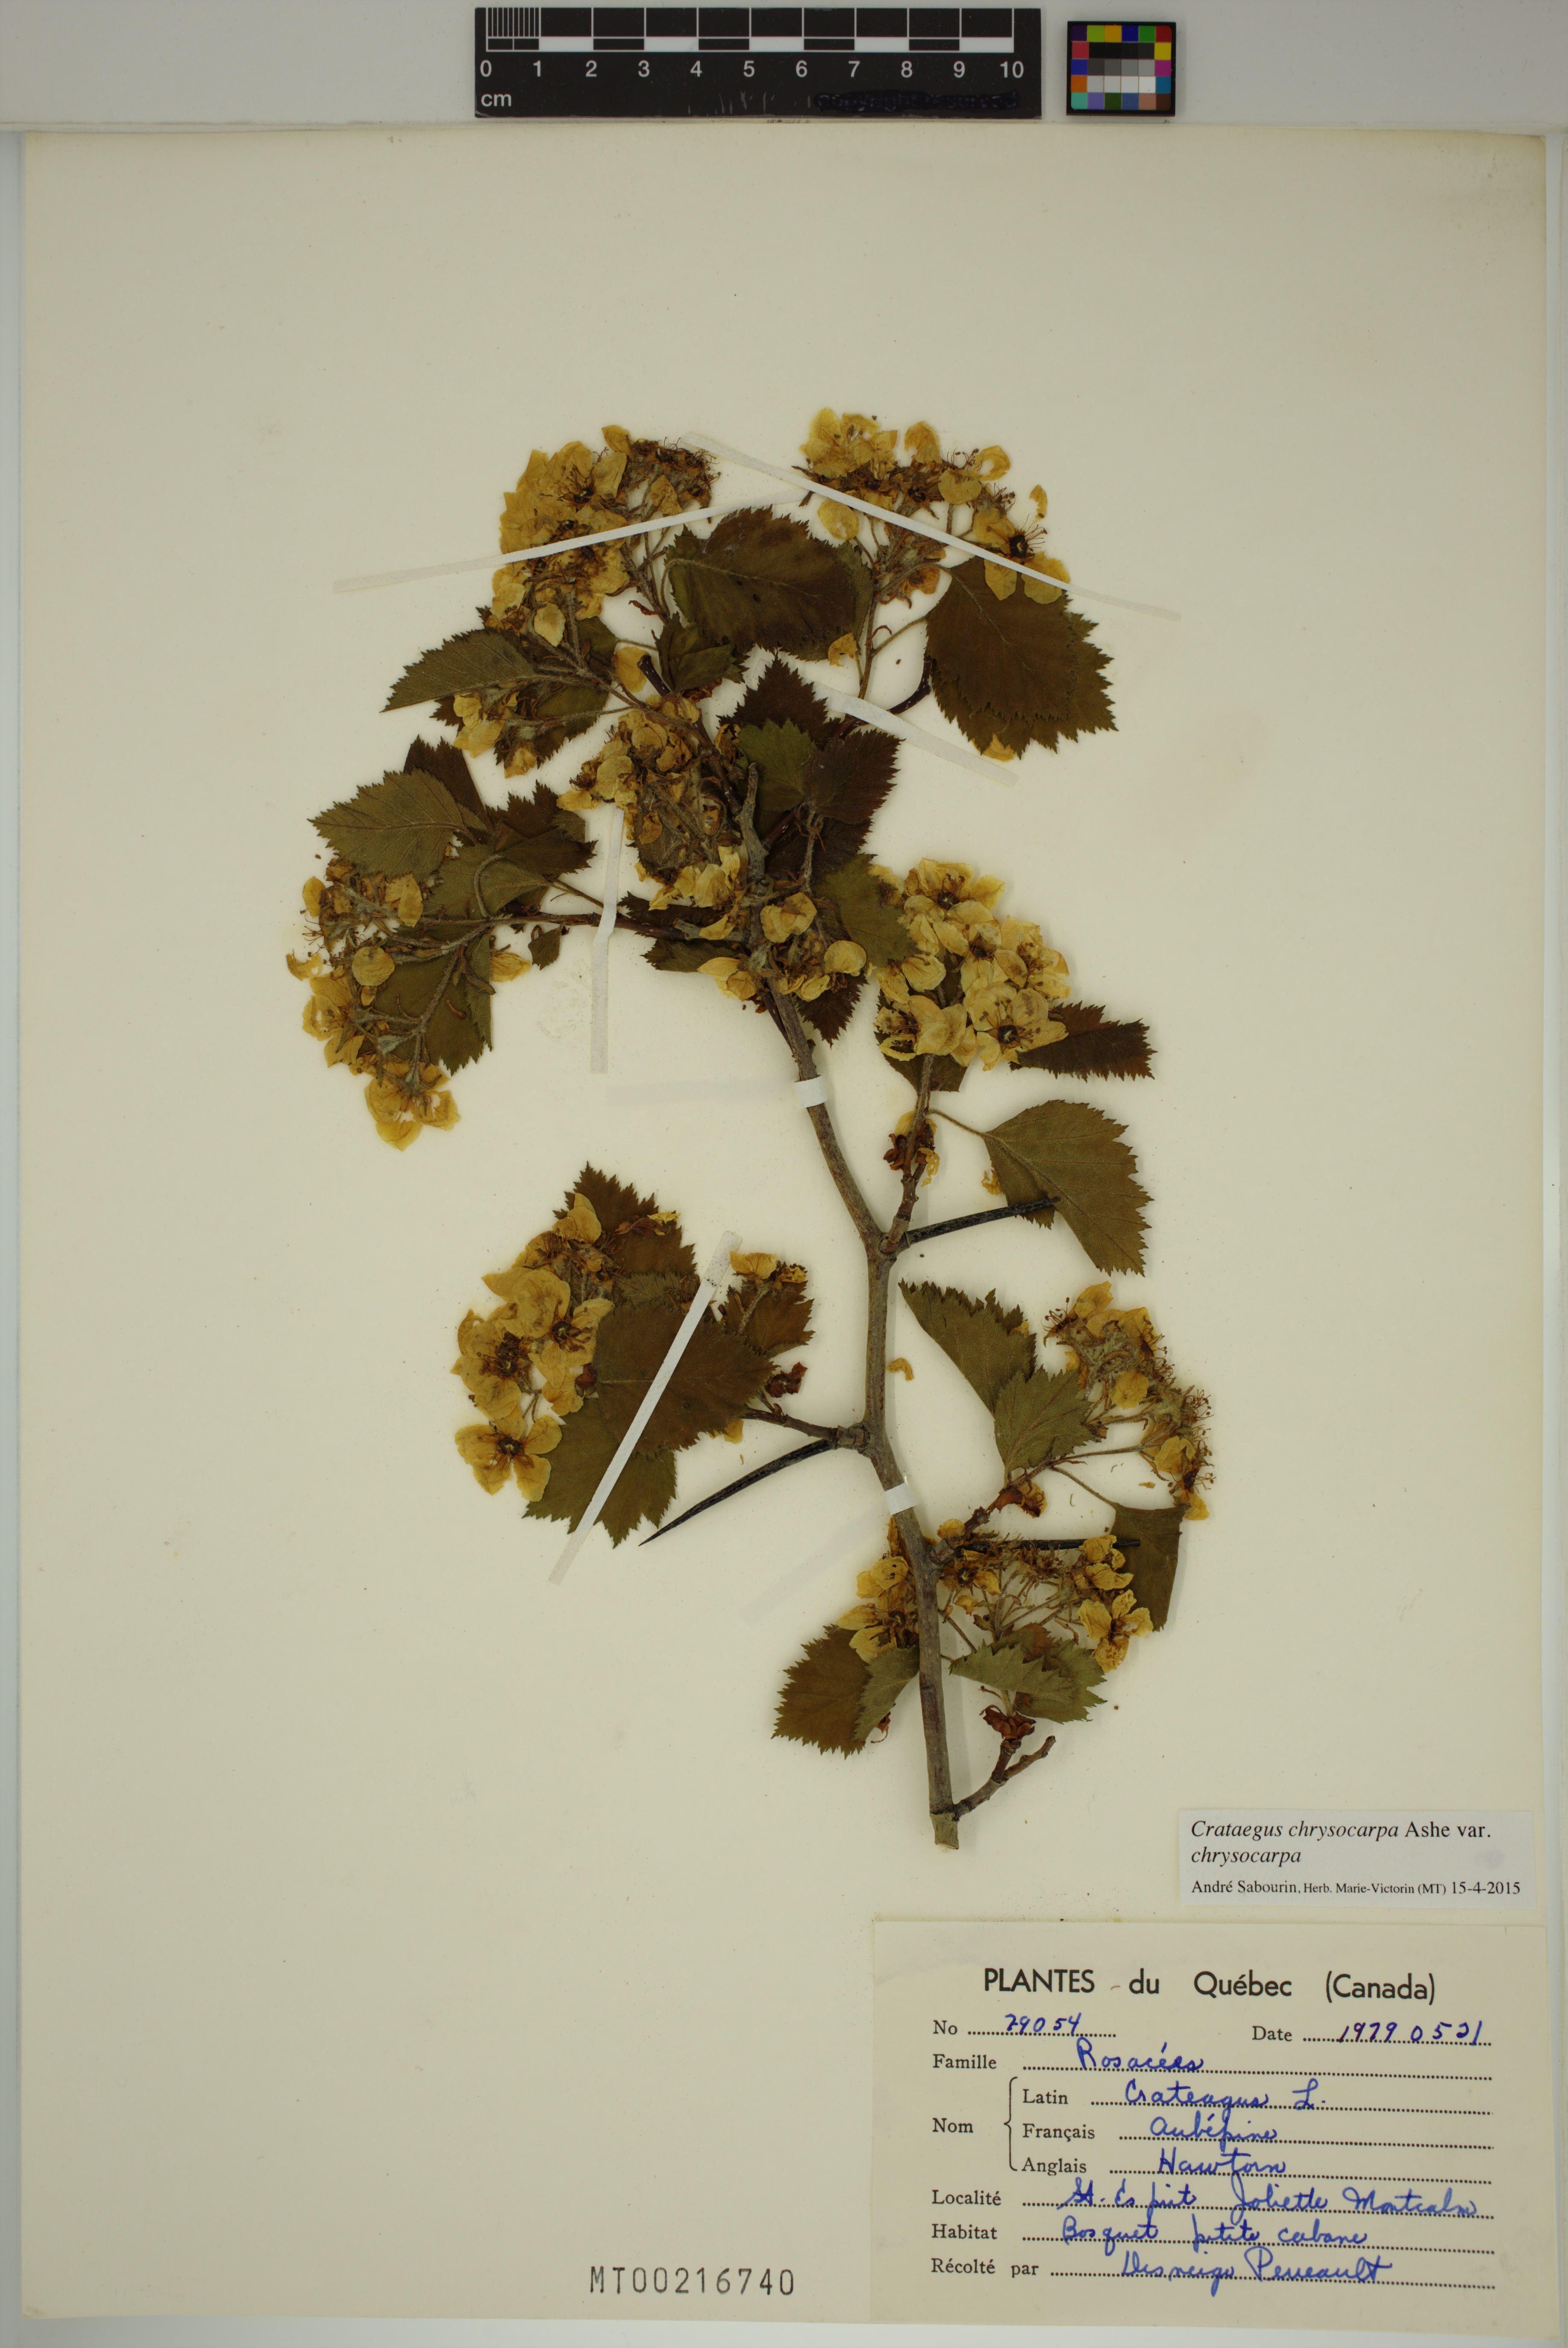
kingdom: Plantae
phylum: Tracheophyta
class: Magnoliopsida
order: Rosales
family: Rosaceae
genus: Crataegus
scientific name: Crataegus chrysocarpa
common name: Fire-berry hawthorn
